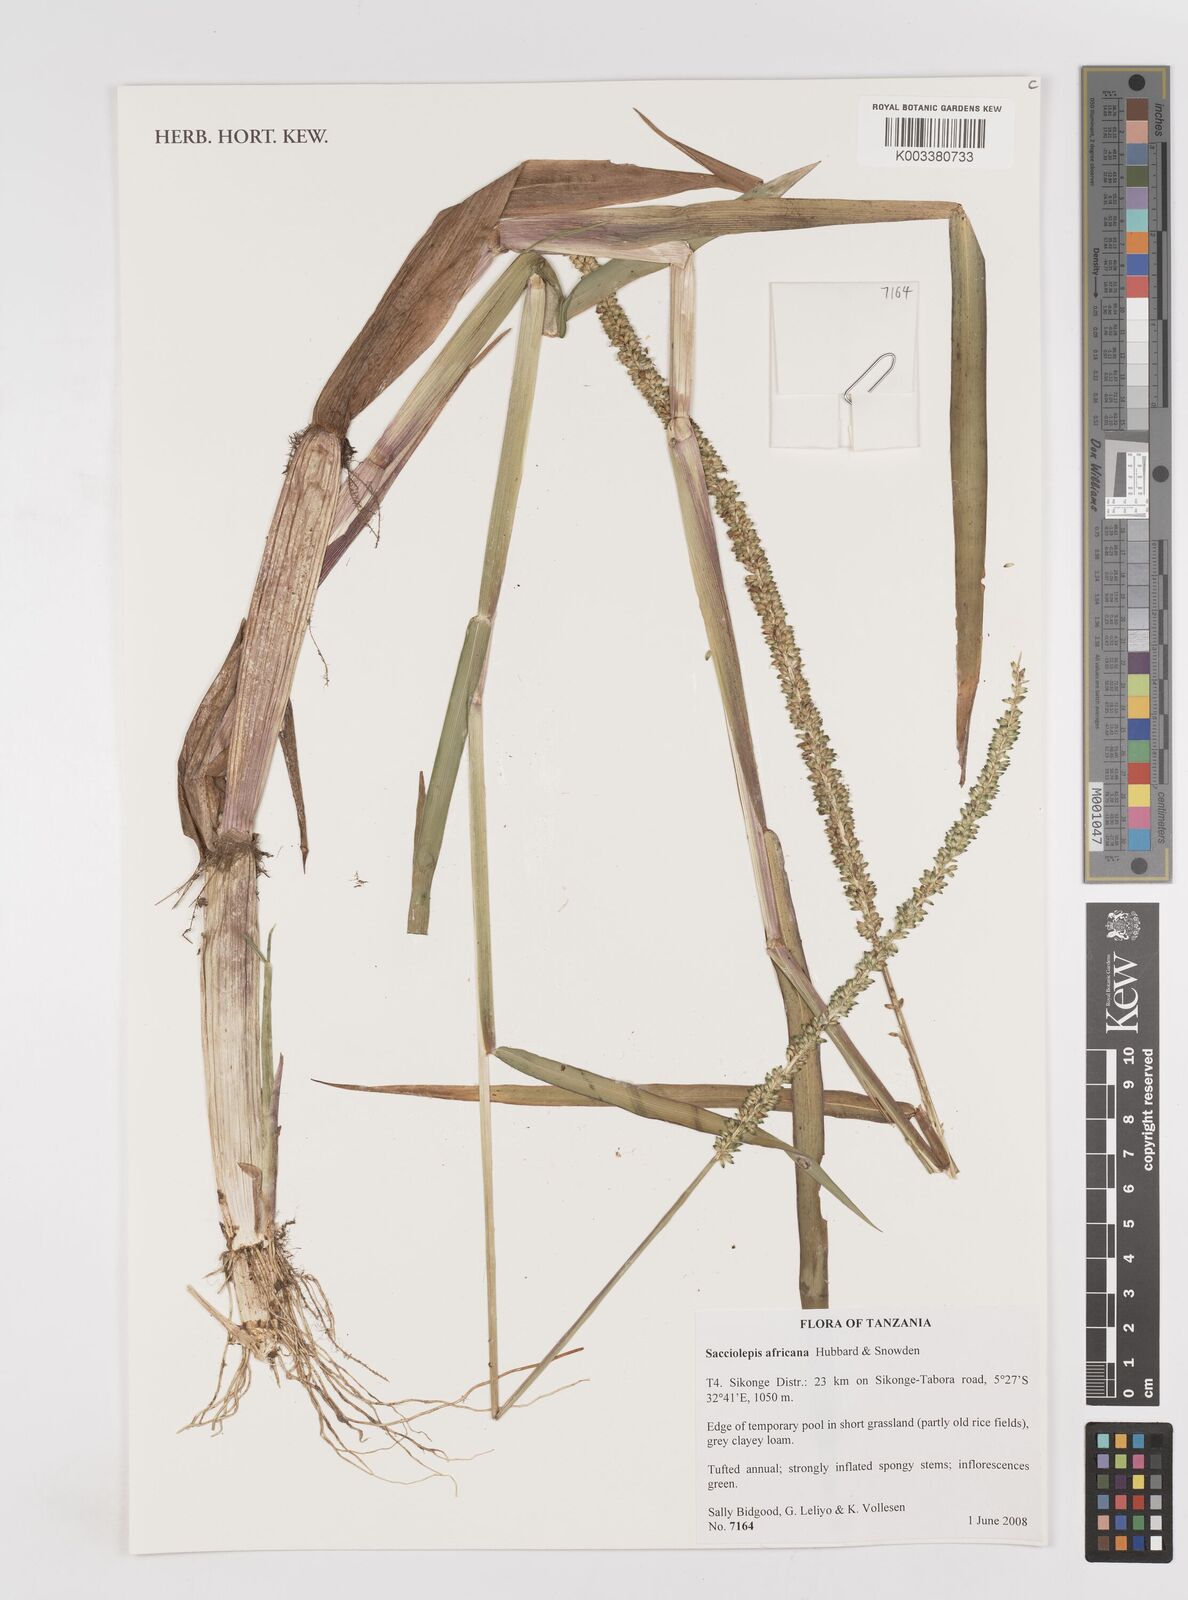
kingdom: Plantae
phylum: Tracheophyta
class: Liliopsida
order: Poales
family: Poaceae
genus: Sacciolepis
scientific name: Sacciolepis africana
